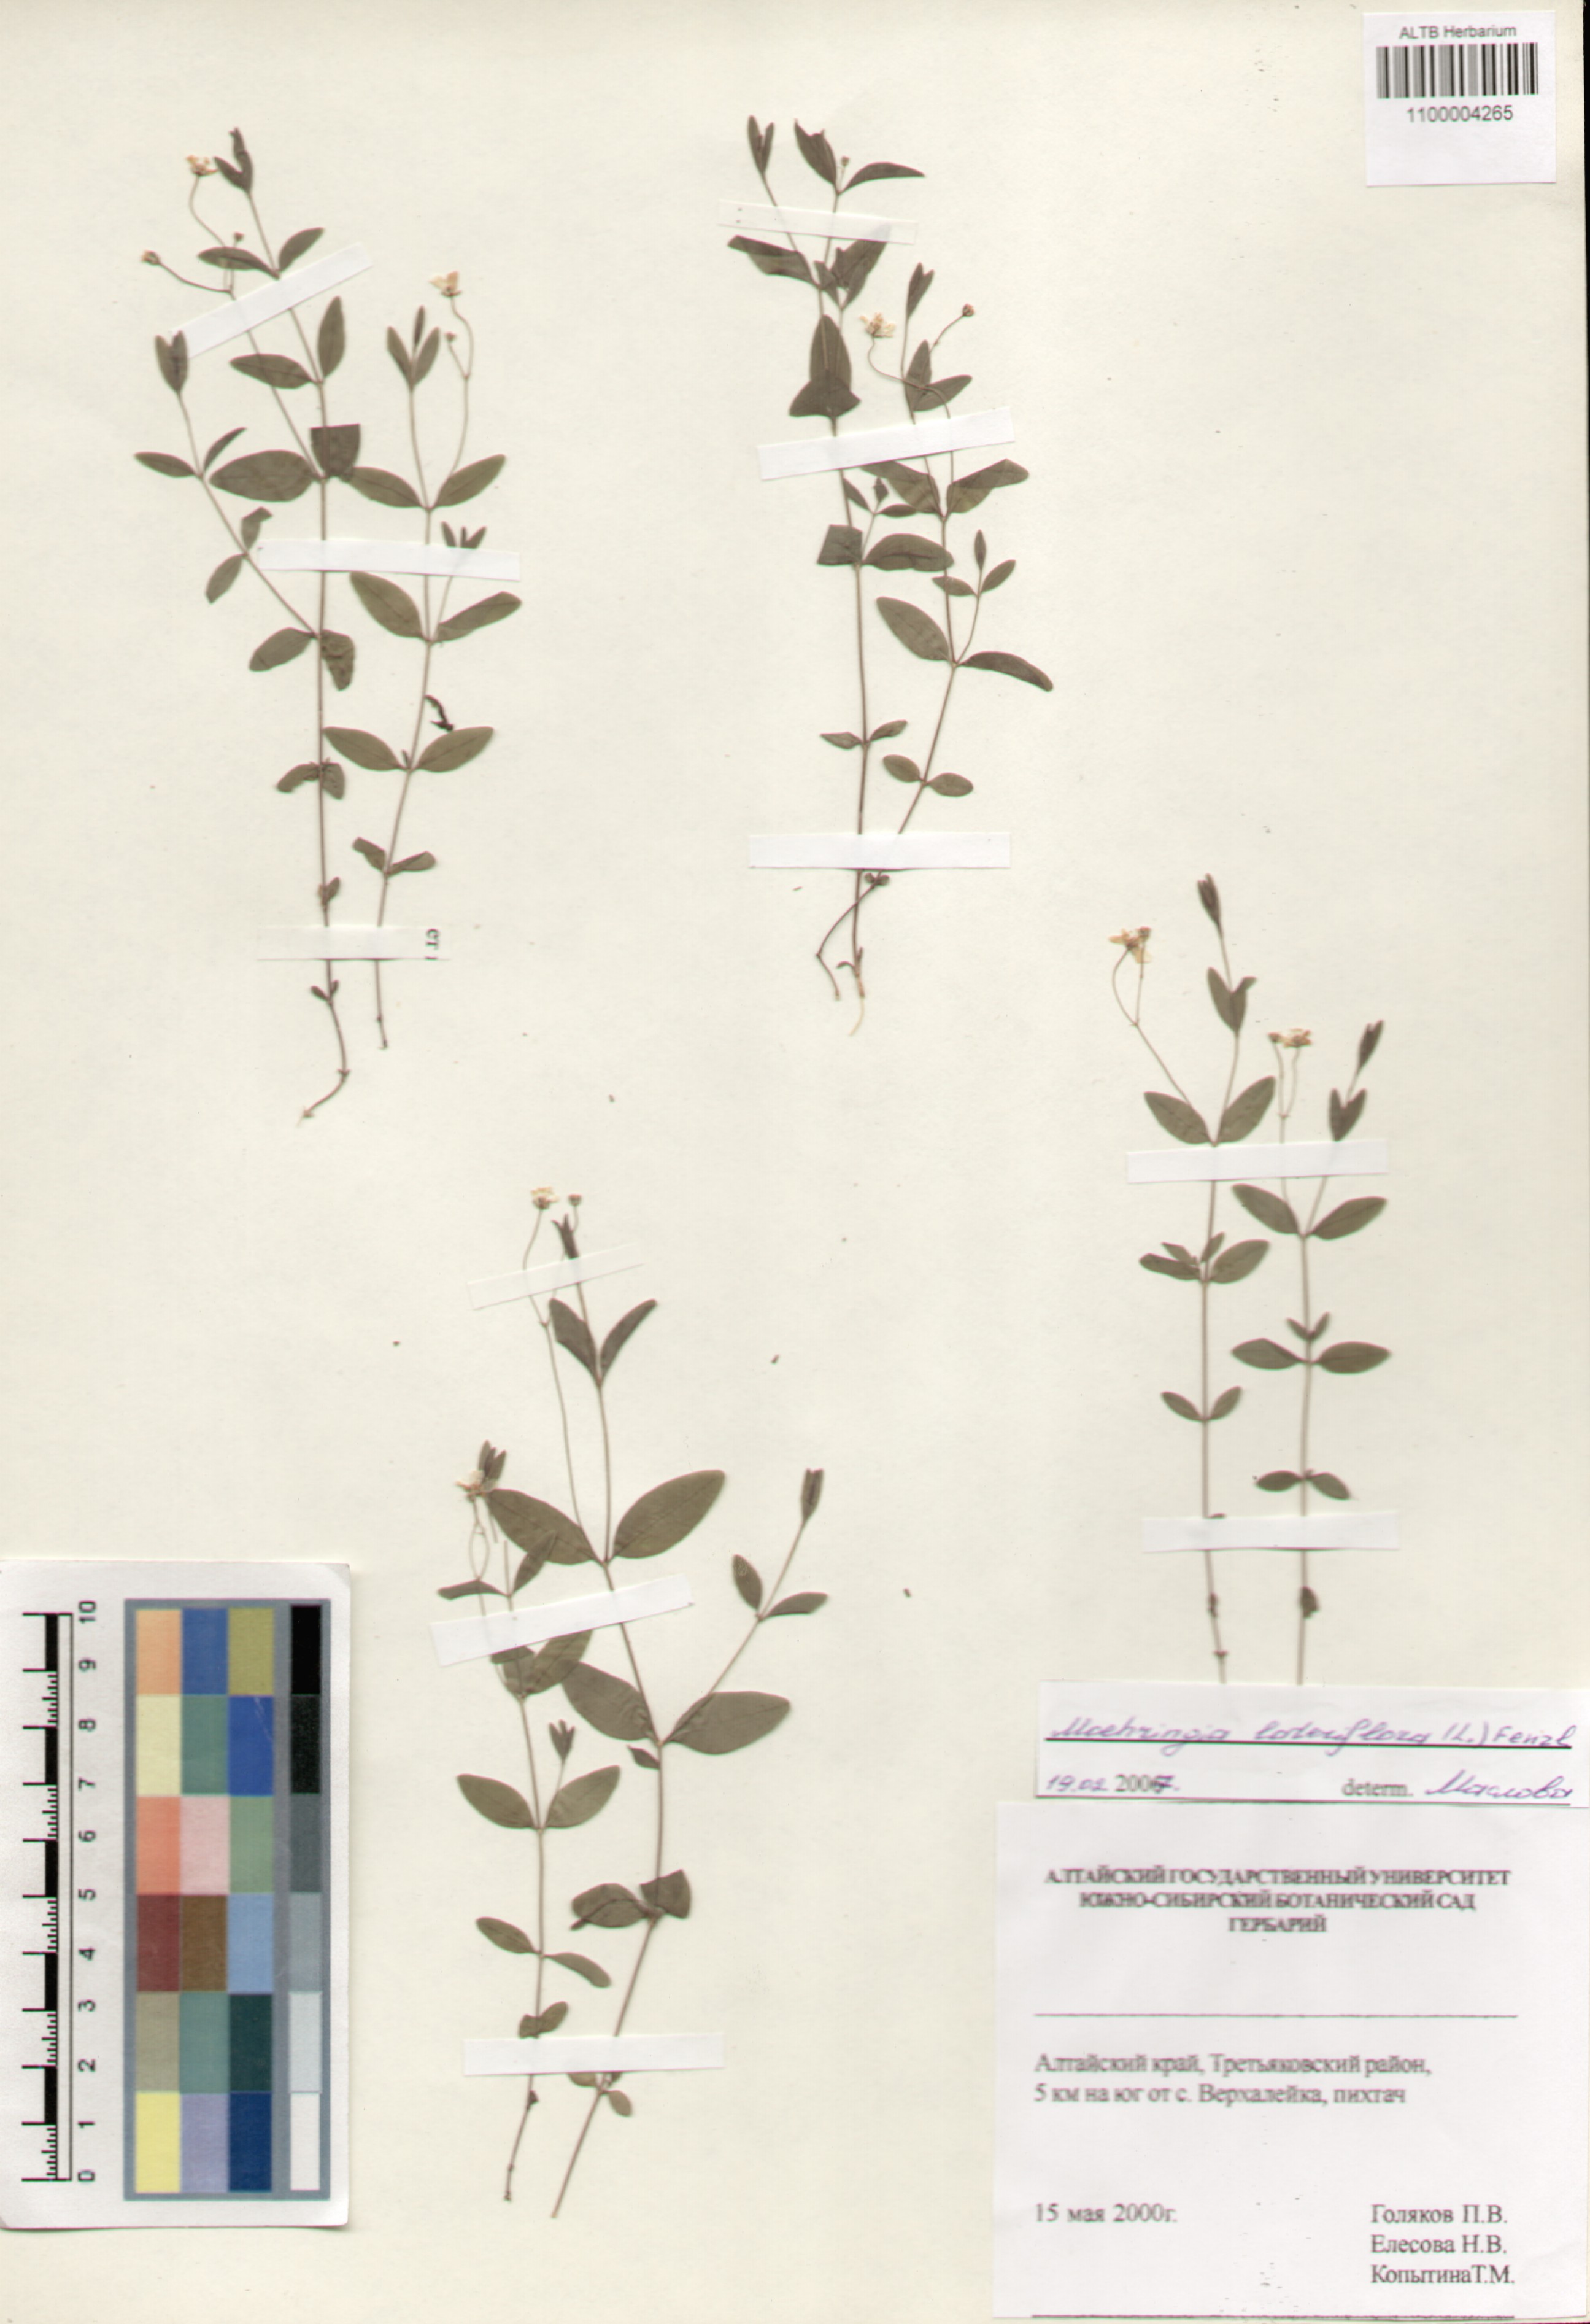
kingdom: Plantae
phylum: Tracheophyta
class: Magnoliopsida
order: Caryophyllales
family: Caryophyllaceae
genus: Moehringia
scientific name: Moehringia lateriflora
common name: Blunt-leaved sandwort
